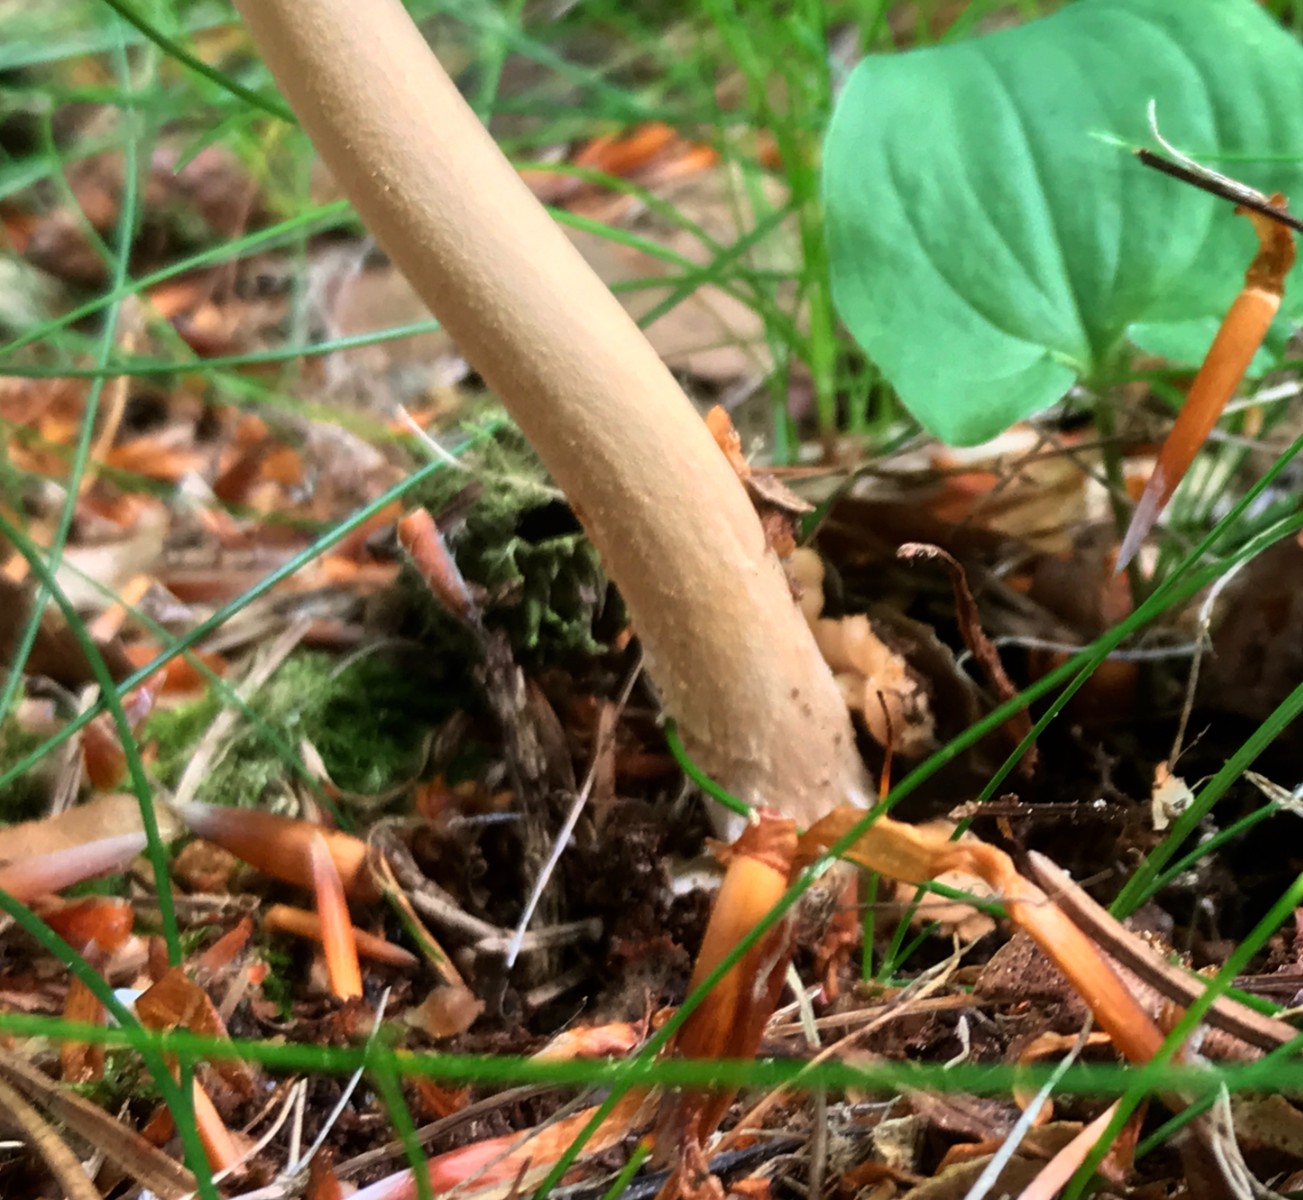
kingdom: Fungi
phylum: Basidiomycota
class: Agaricomycetes
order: Agaricales
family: Amanitaceae
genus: Amanita
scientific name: Amanita fulva
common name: brun kam-fluesvamp
